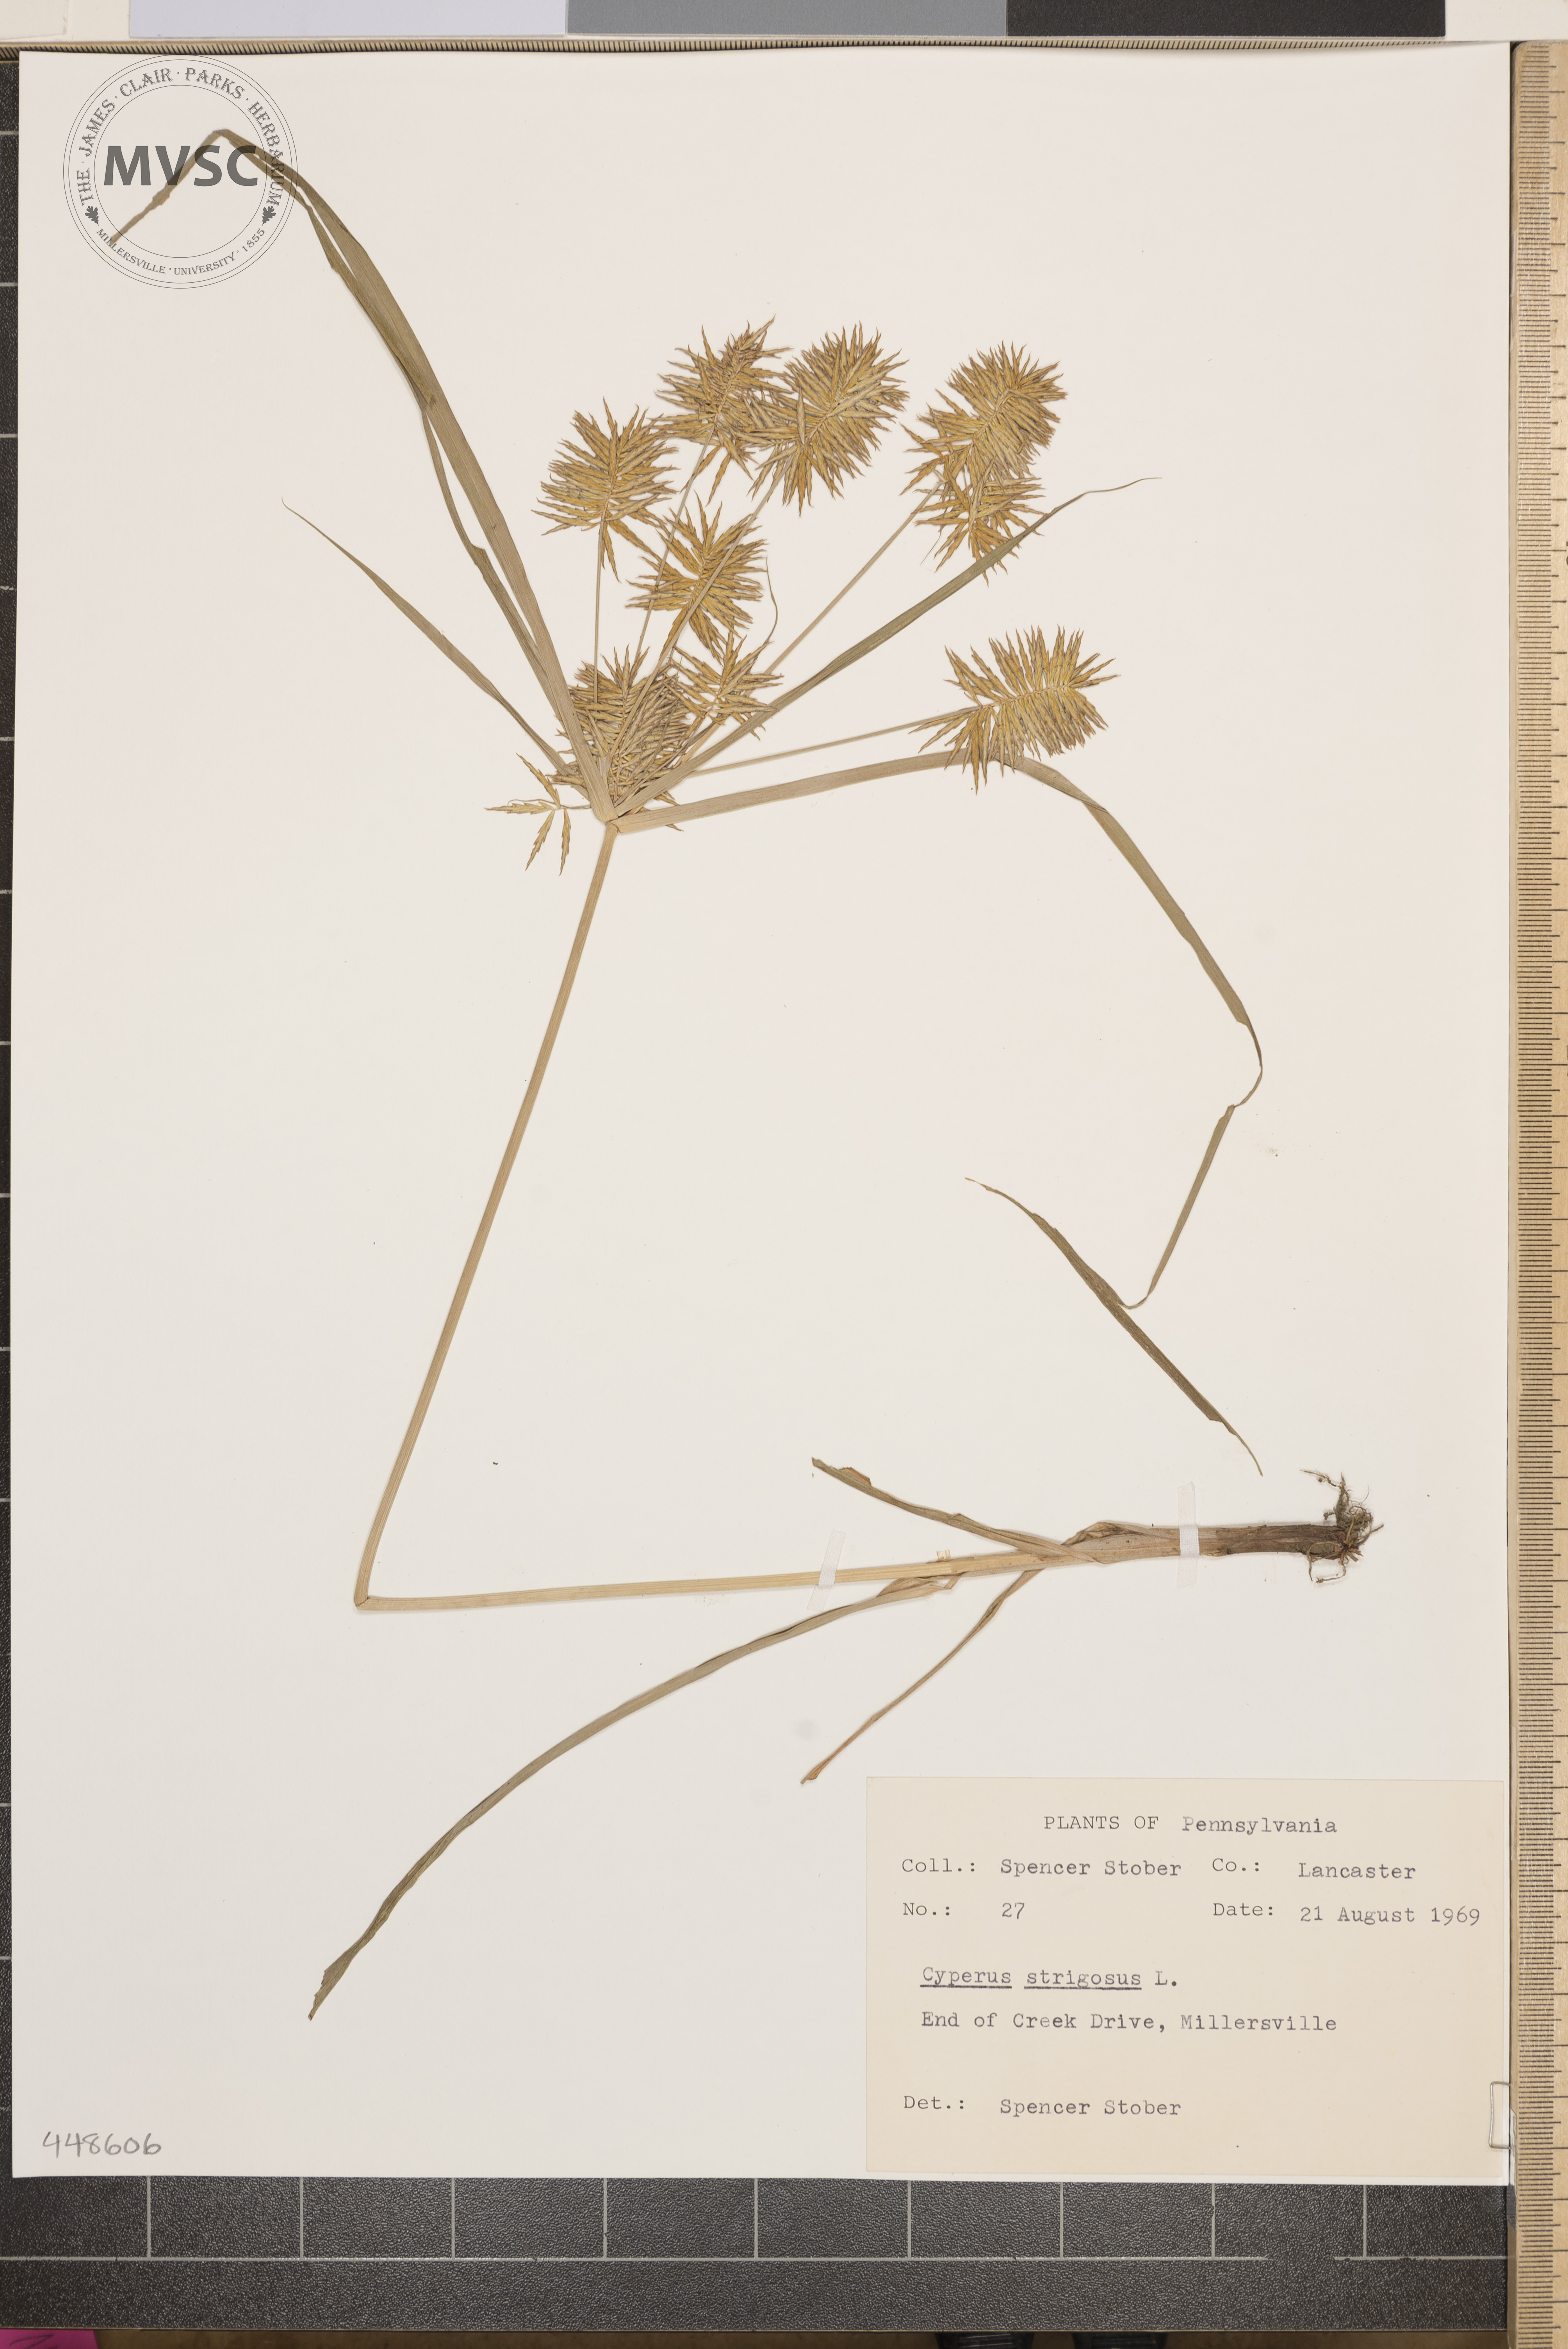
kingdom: Plantae
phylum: Tracheophyta
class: Liliopsida
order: Poales
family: Cyperaceae
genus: Cyperus
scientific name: Cyperus strigosus
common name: False nutsedge
